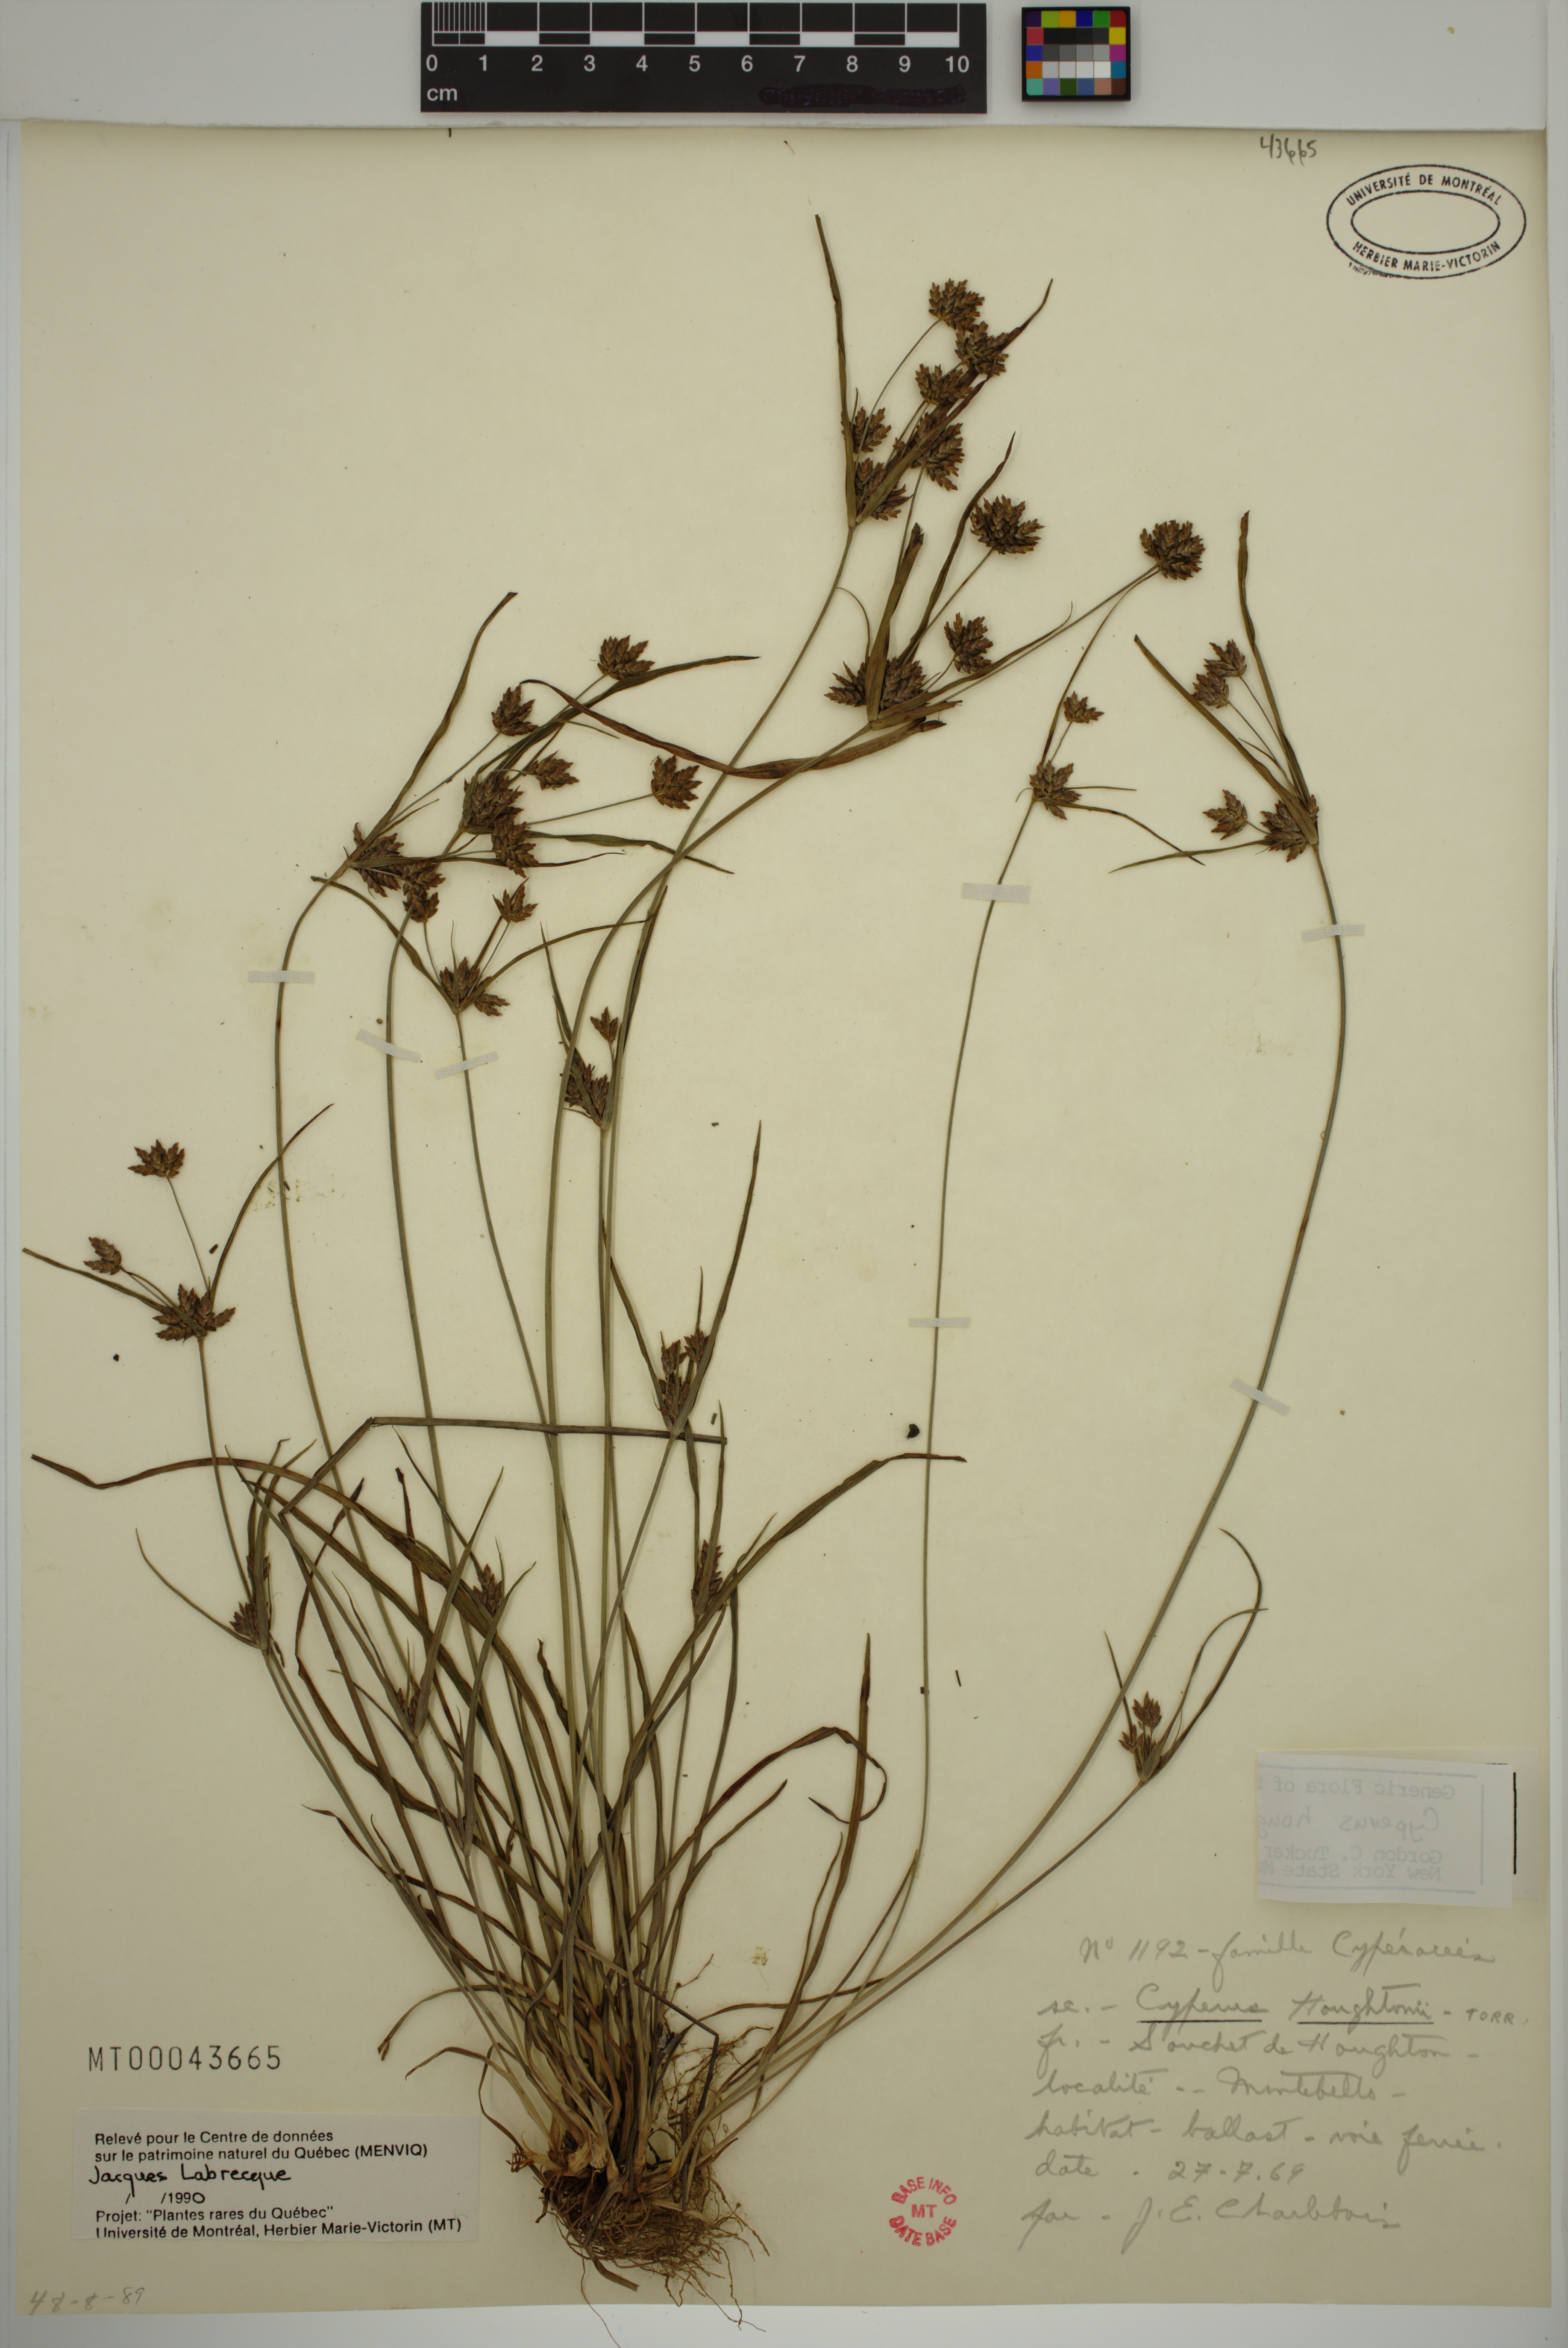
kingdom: Plantae
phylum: Tracheophyta
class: Liliopsida
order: Poales
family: Cyperaceae
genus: Cyperus
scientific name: Cyperus houghtonii
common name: Houghton's cyperus
